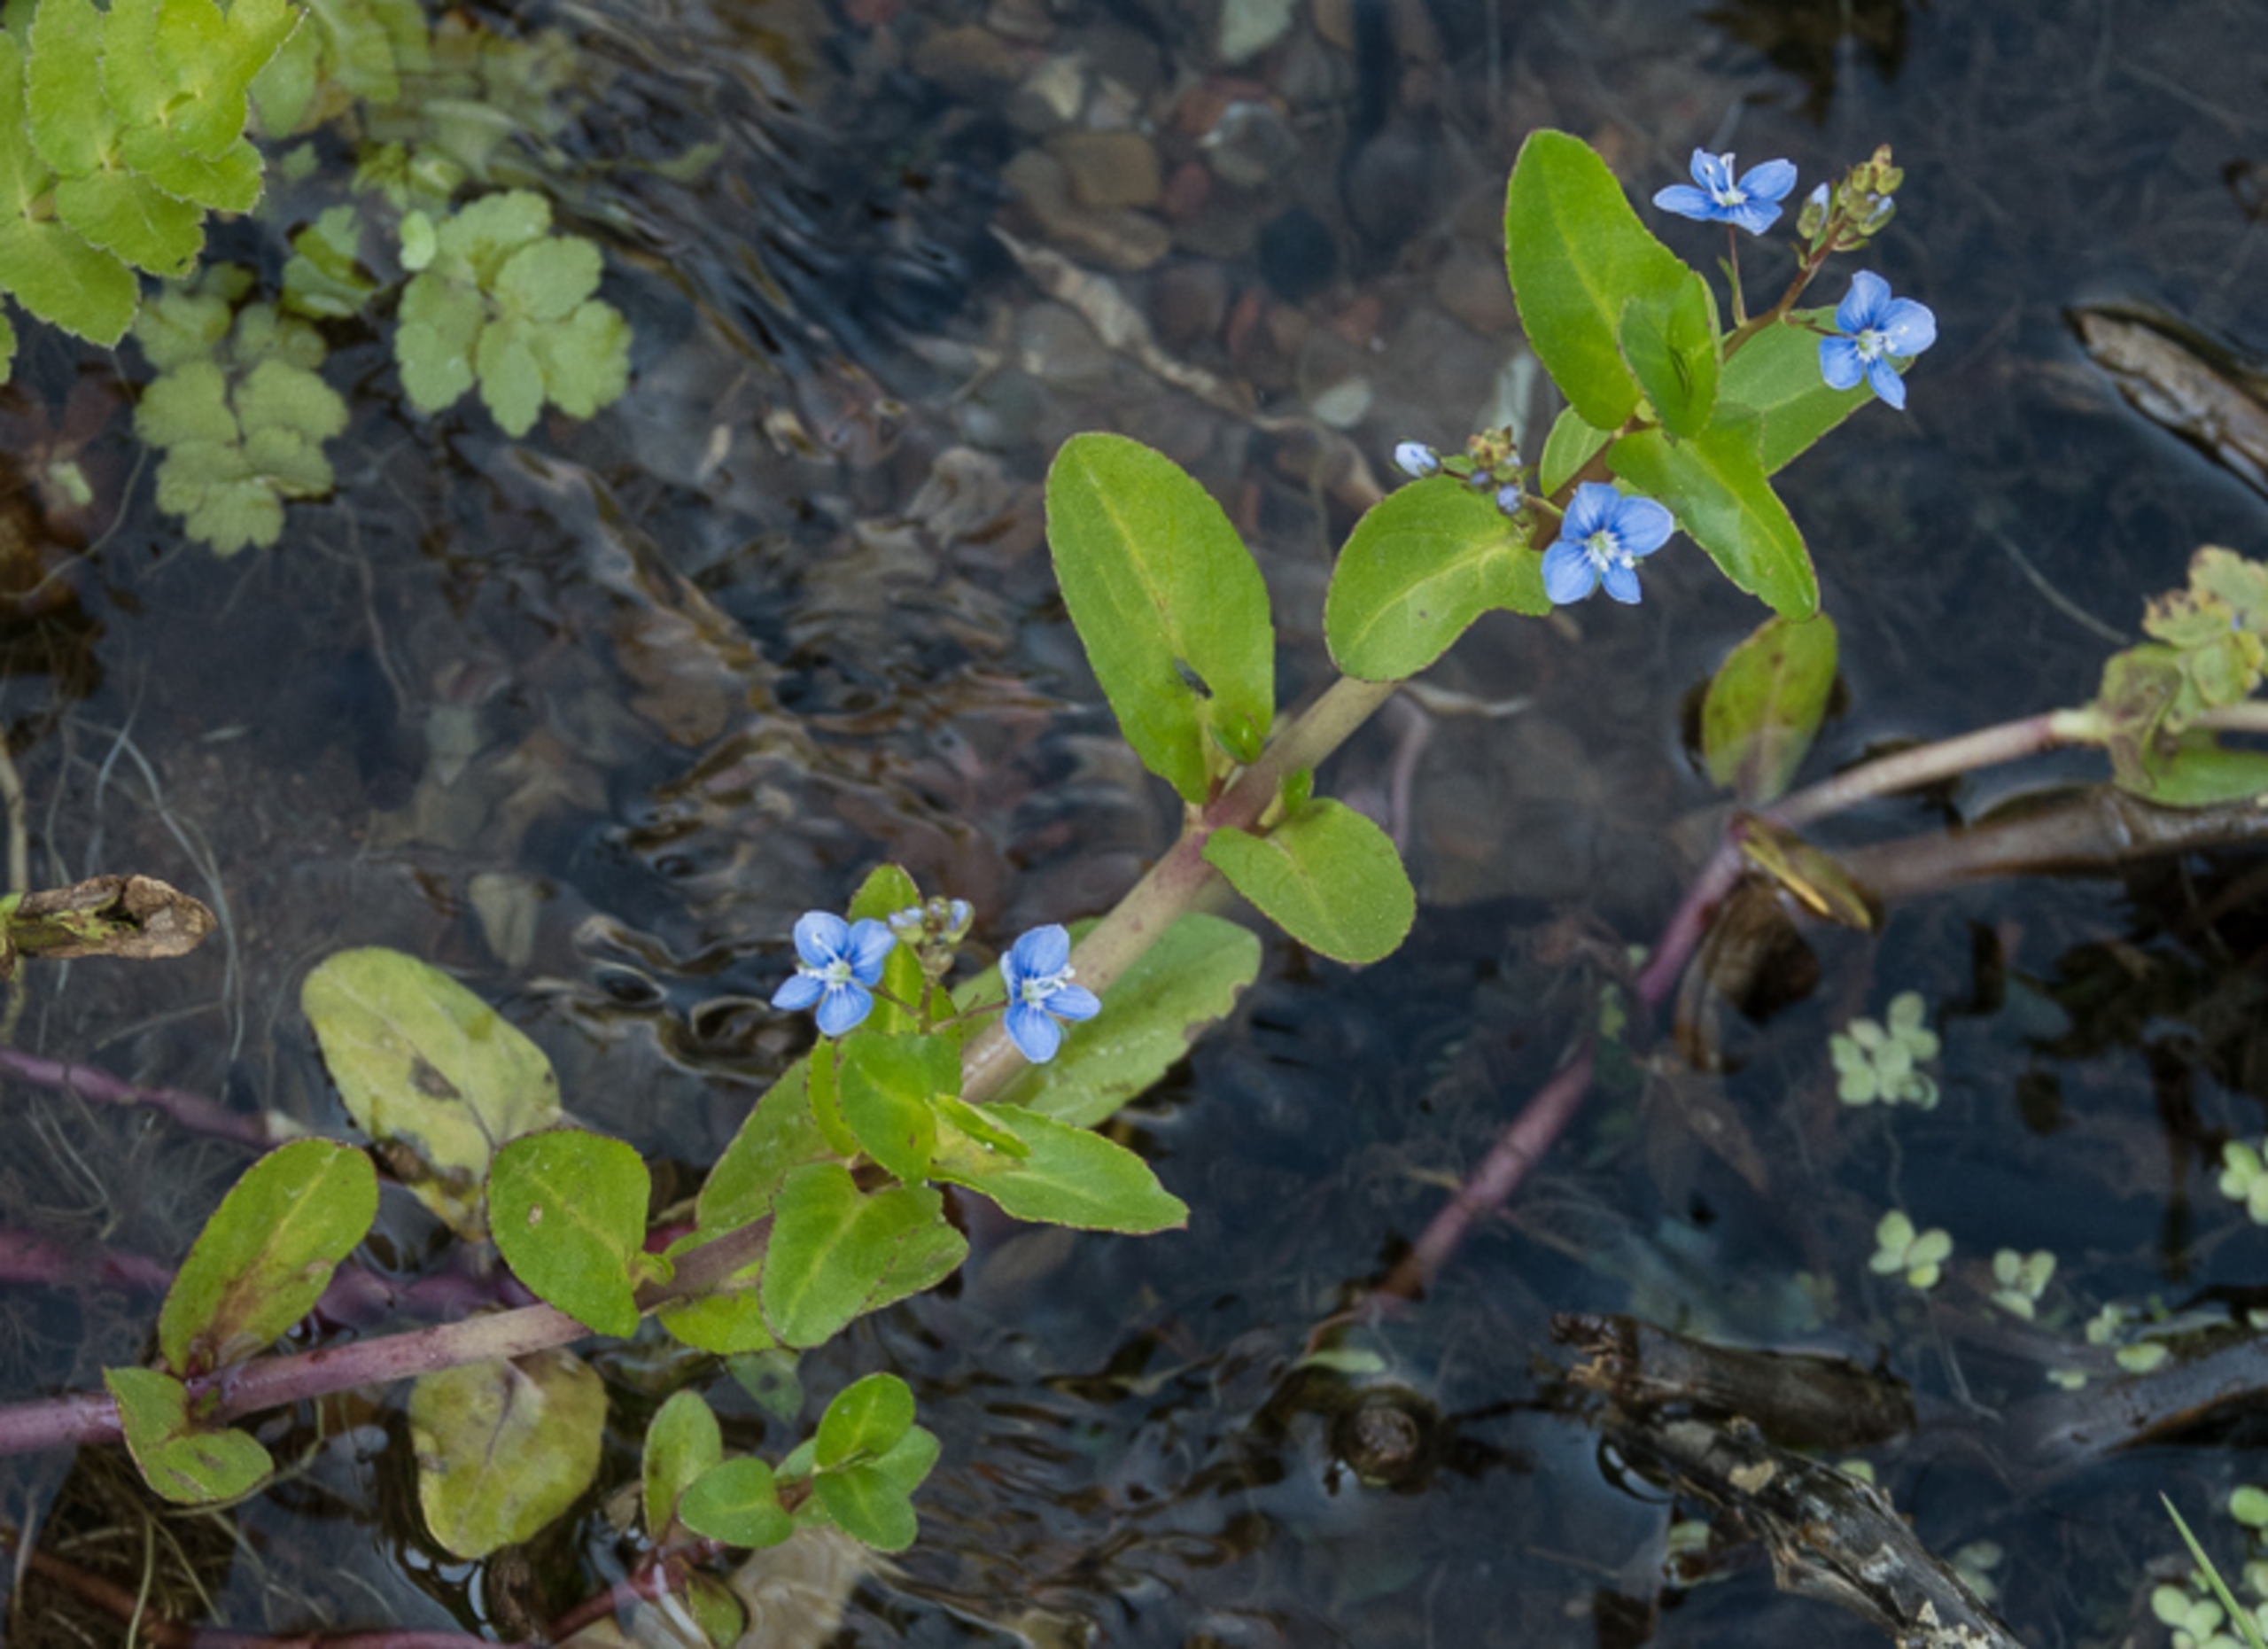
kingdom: Plantae
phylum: Tracheophyta
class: Magnoliopsida
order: Lamiales
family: Plantaginaceae
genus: Veronica
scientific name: Veronica beccabunga
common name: Tykbladet ærenpris
